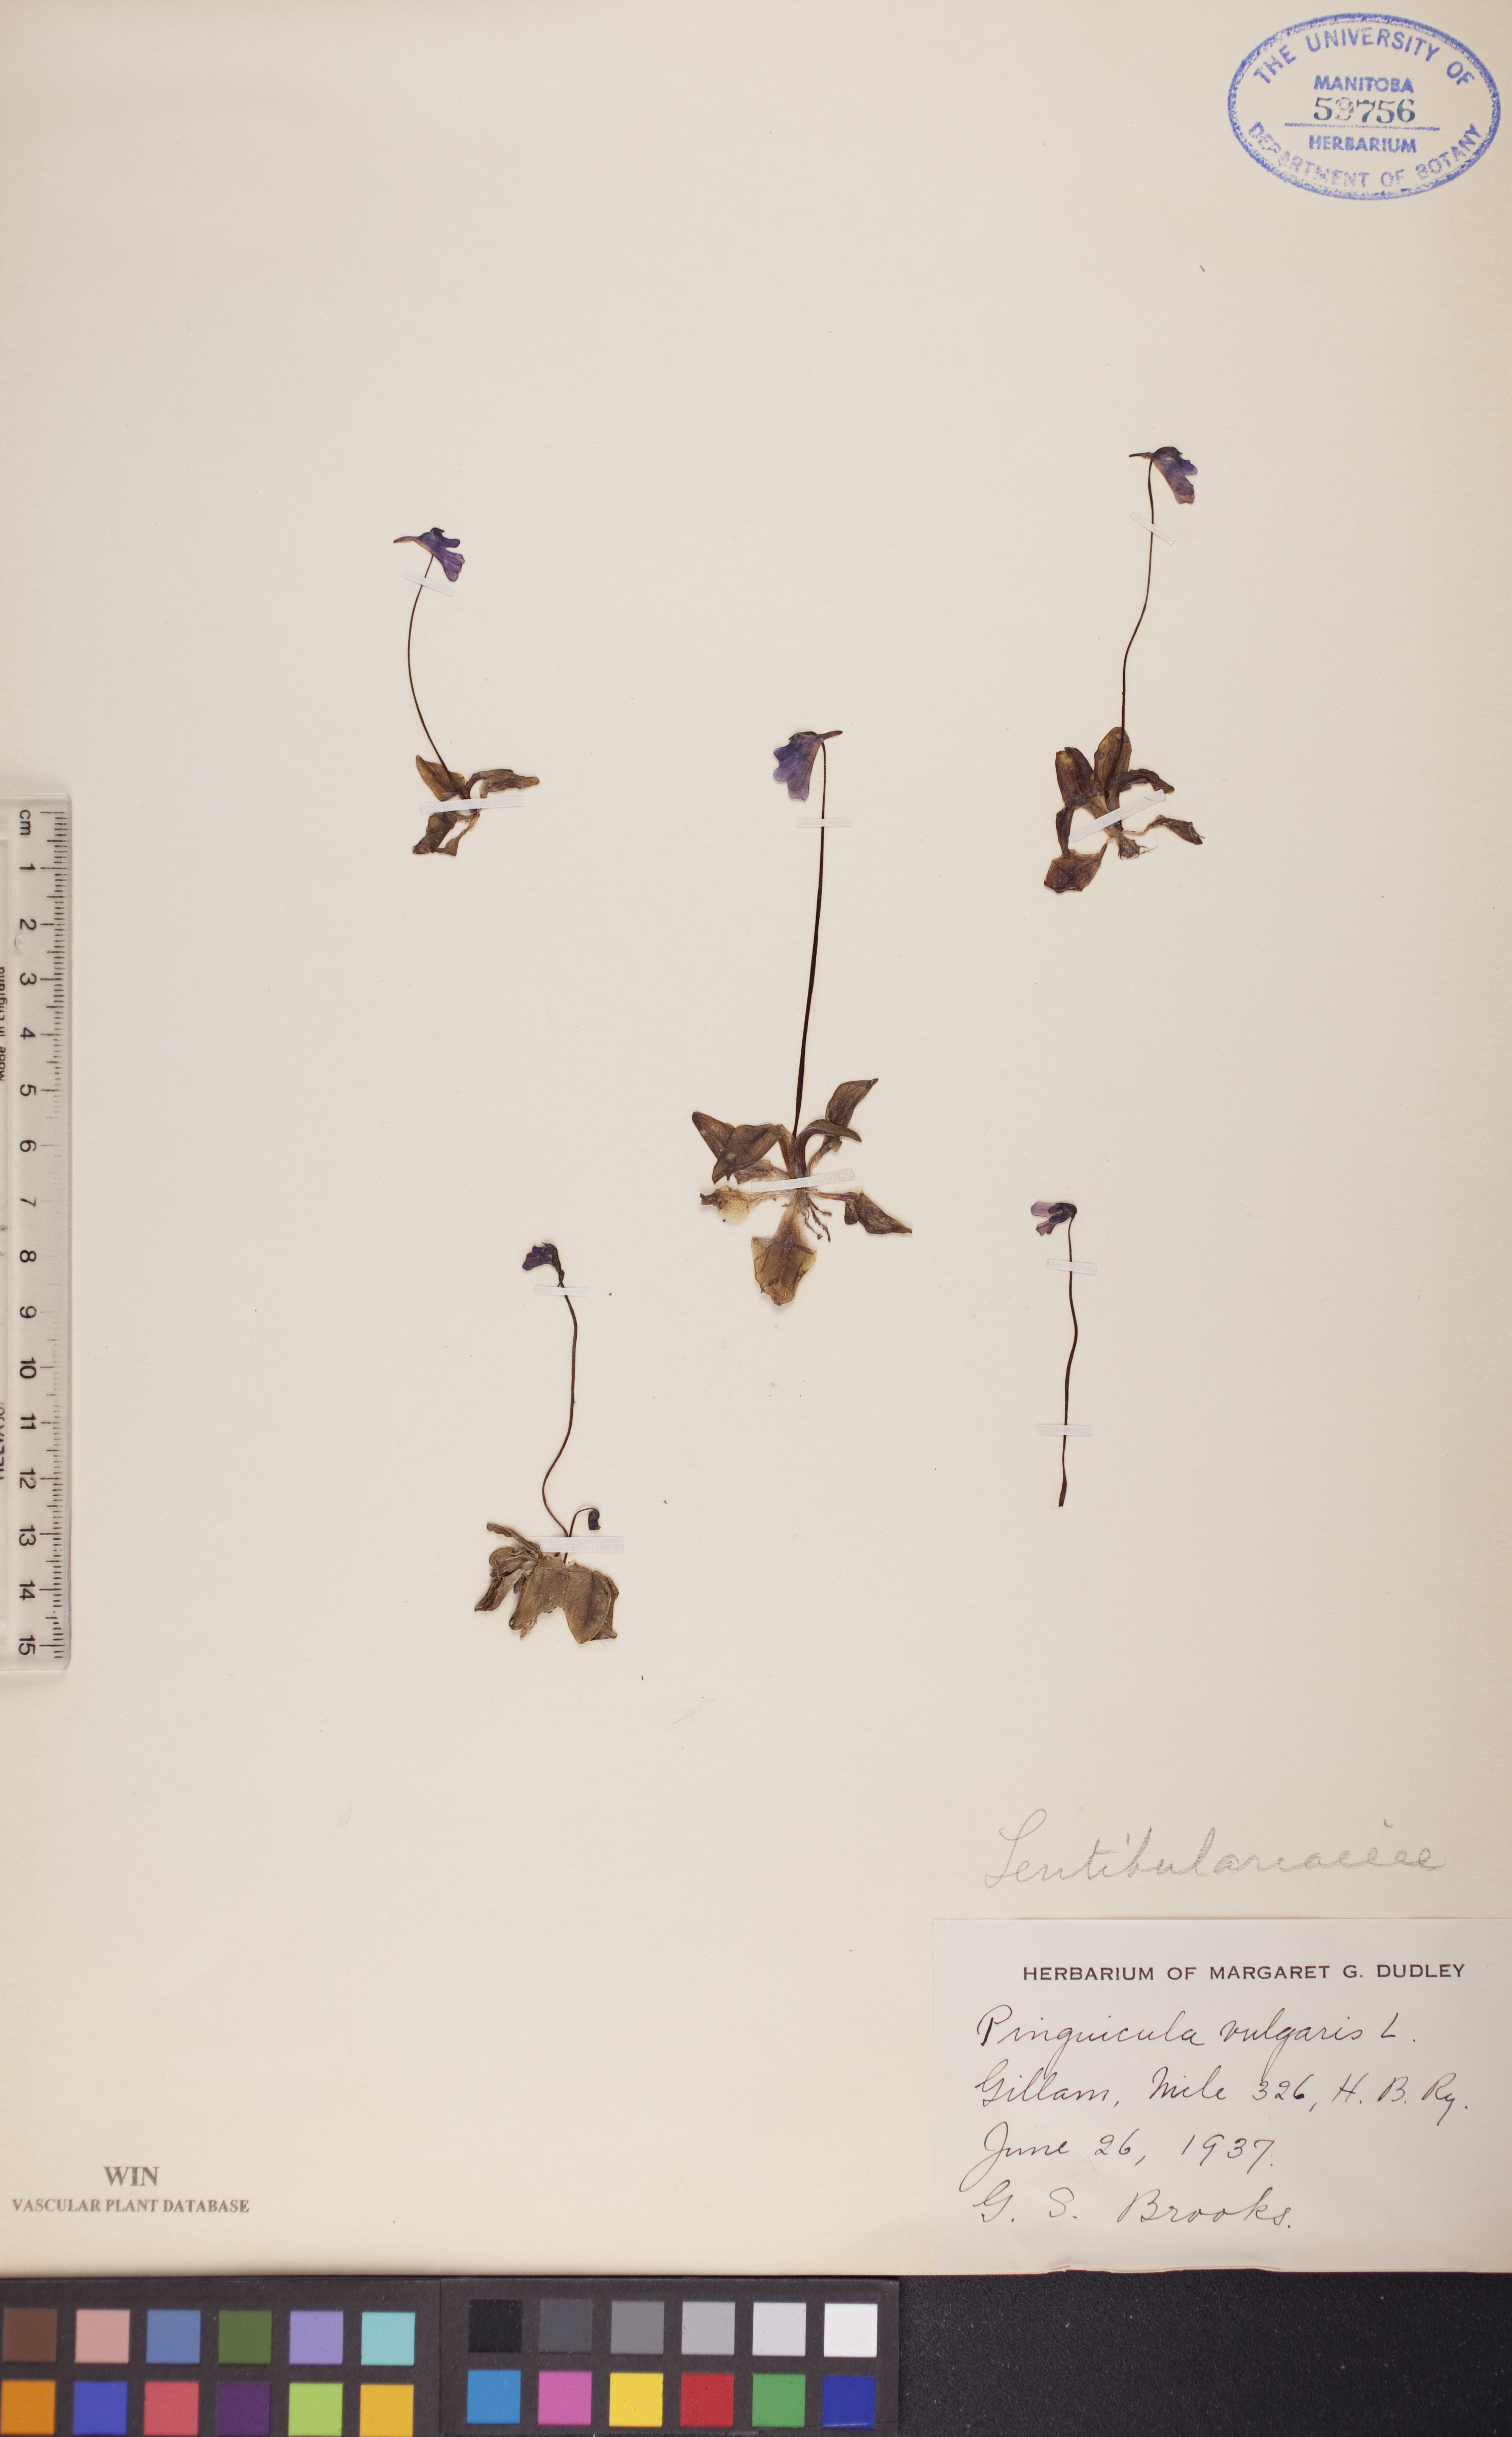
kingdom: Plantae
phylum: Tracheophyta
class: Magnoliopsida
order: Lamiales
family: Lentibulariaceae
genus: Pinguicula
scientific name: Pinguicula vulgaris
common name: Common butterwort
